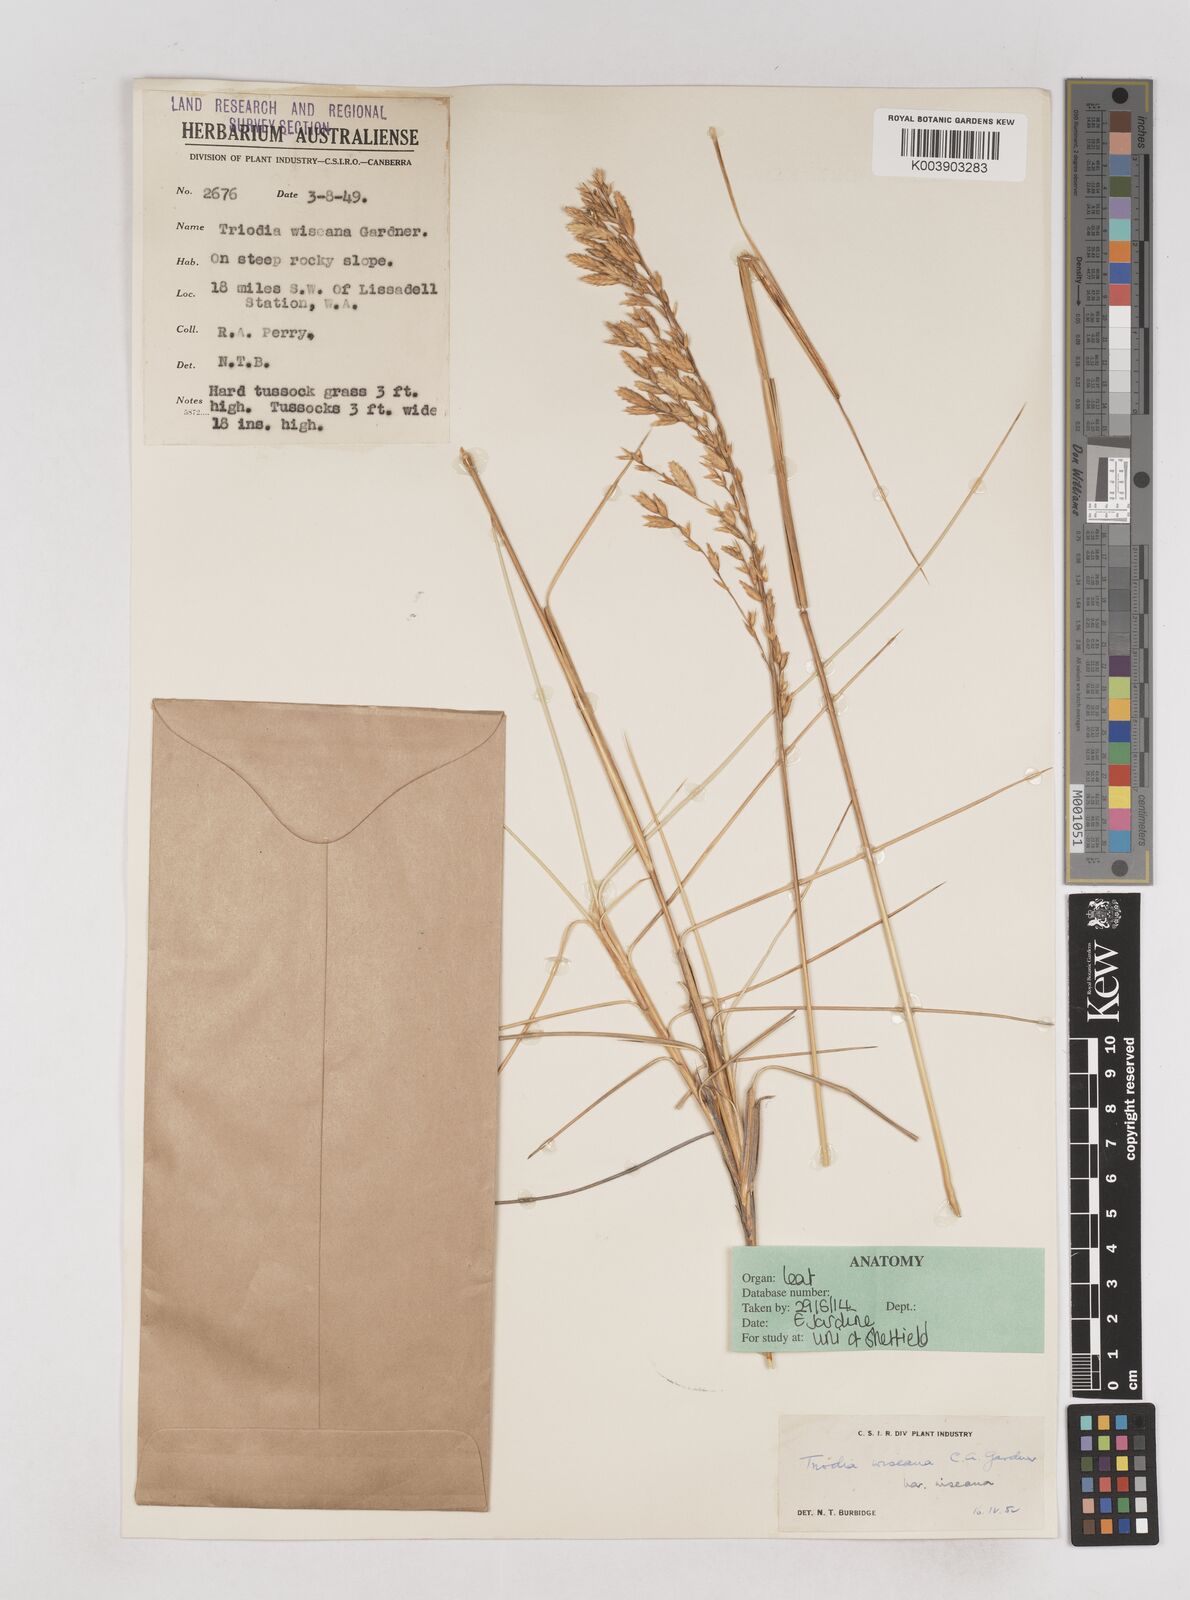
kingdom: Plantae
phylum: Tracheophyta
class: Liliopsida
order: Poales
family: Poaceae
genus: Triodia
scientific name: Triodia wiseana
